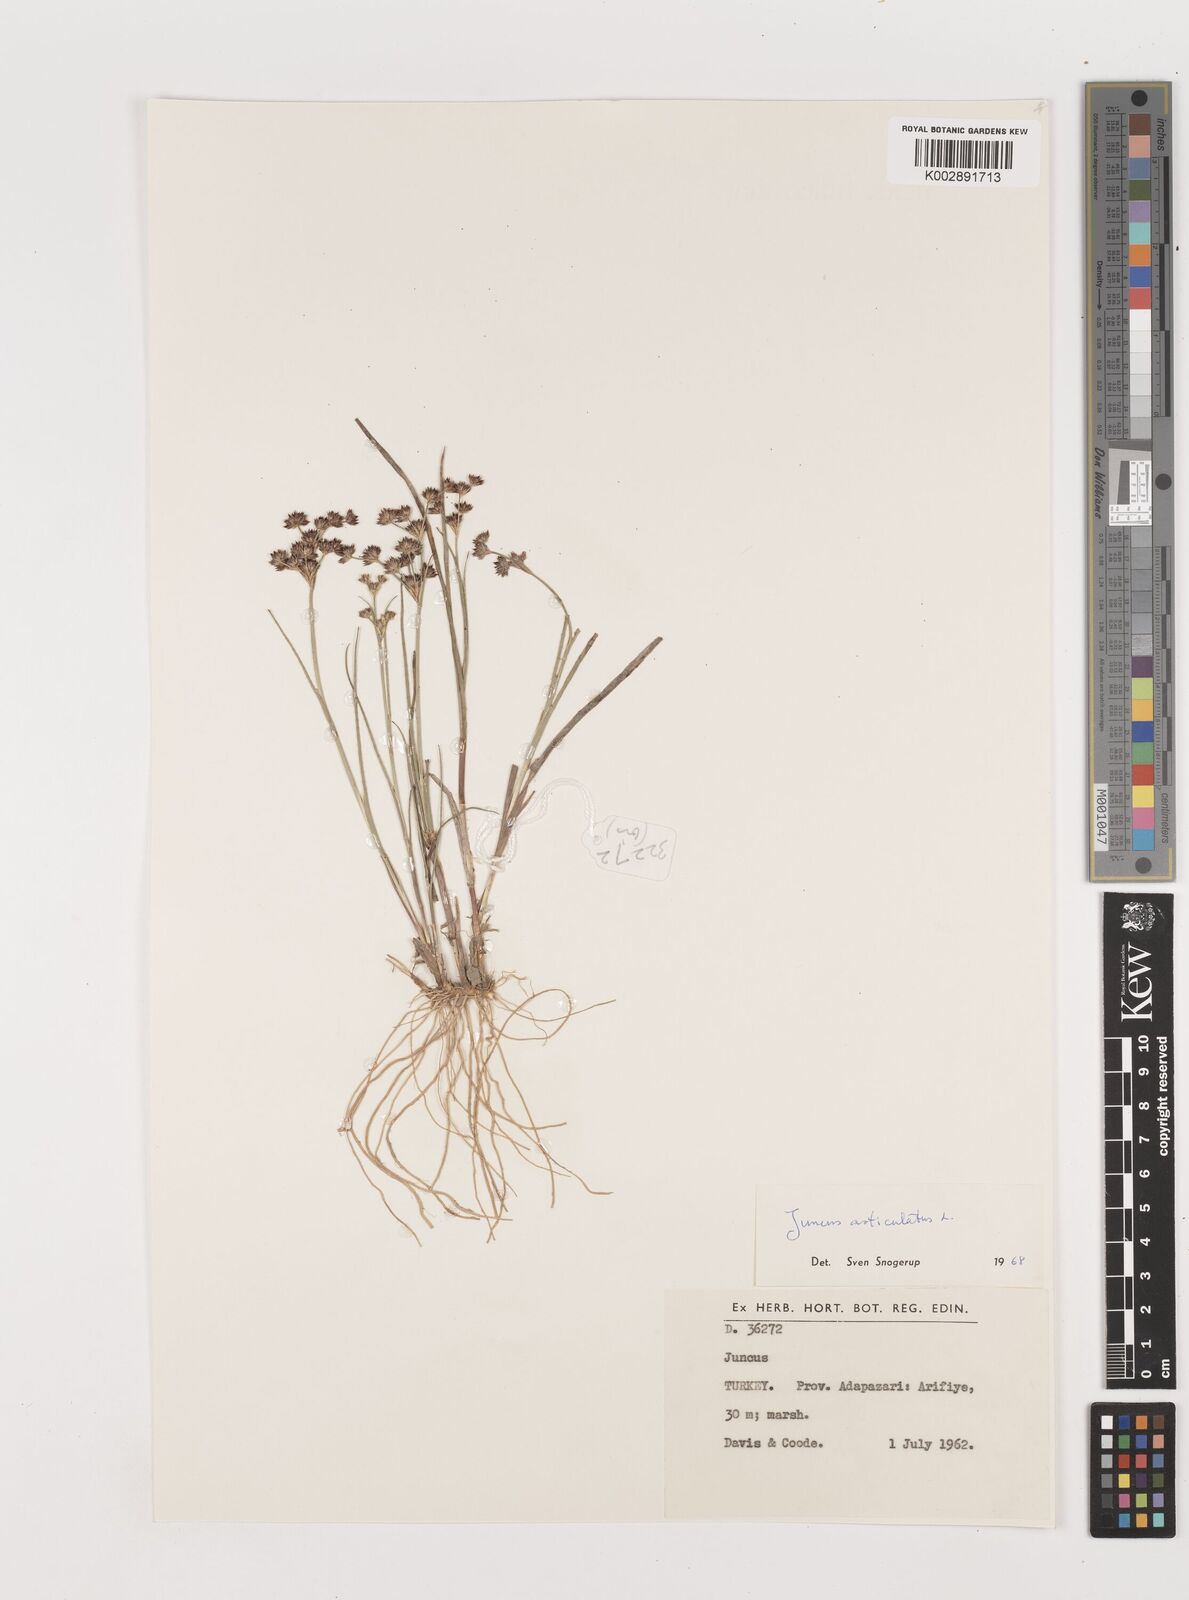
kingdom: Plantae
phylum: Tracheophyta
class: Liliopsida
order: Poales
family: Juncaceae
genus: Juncus
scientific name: Juncus articulatus
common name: Jointed rush
